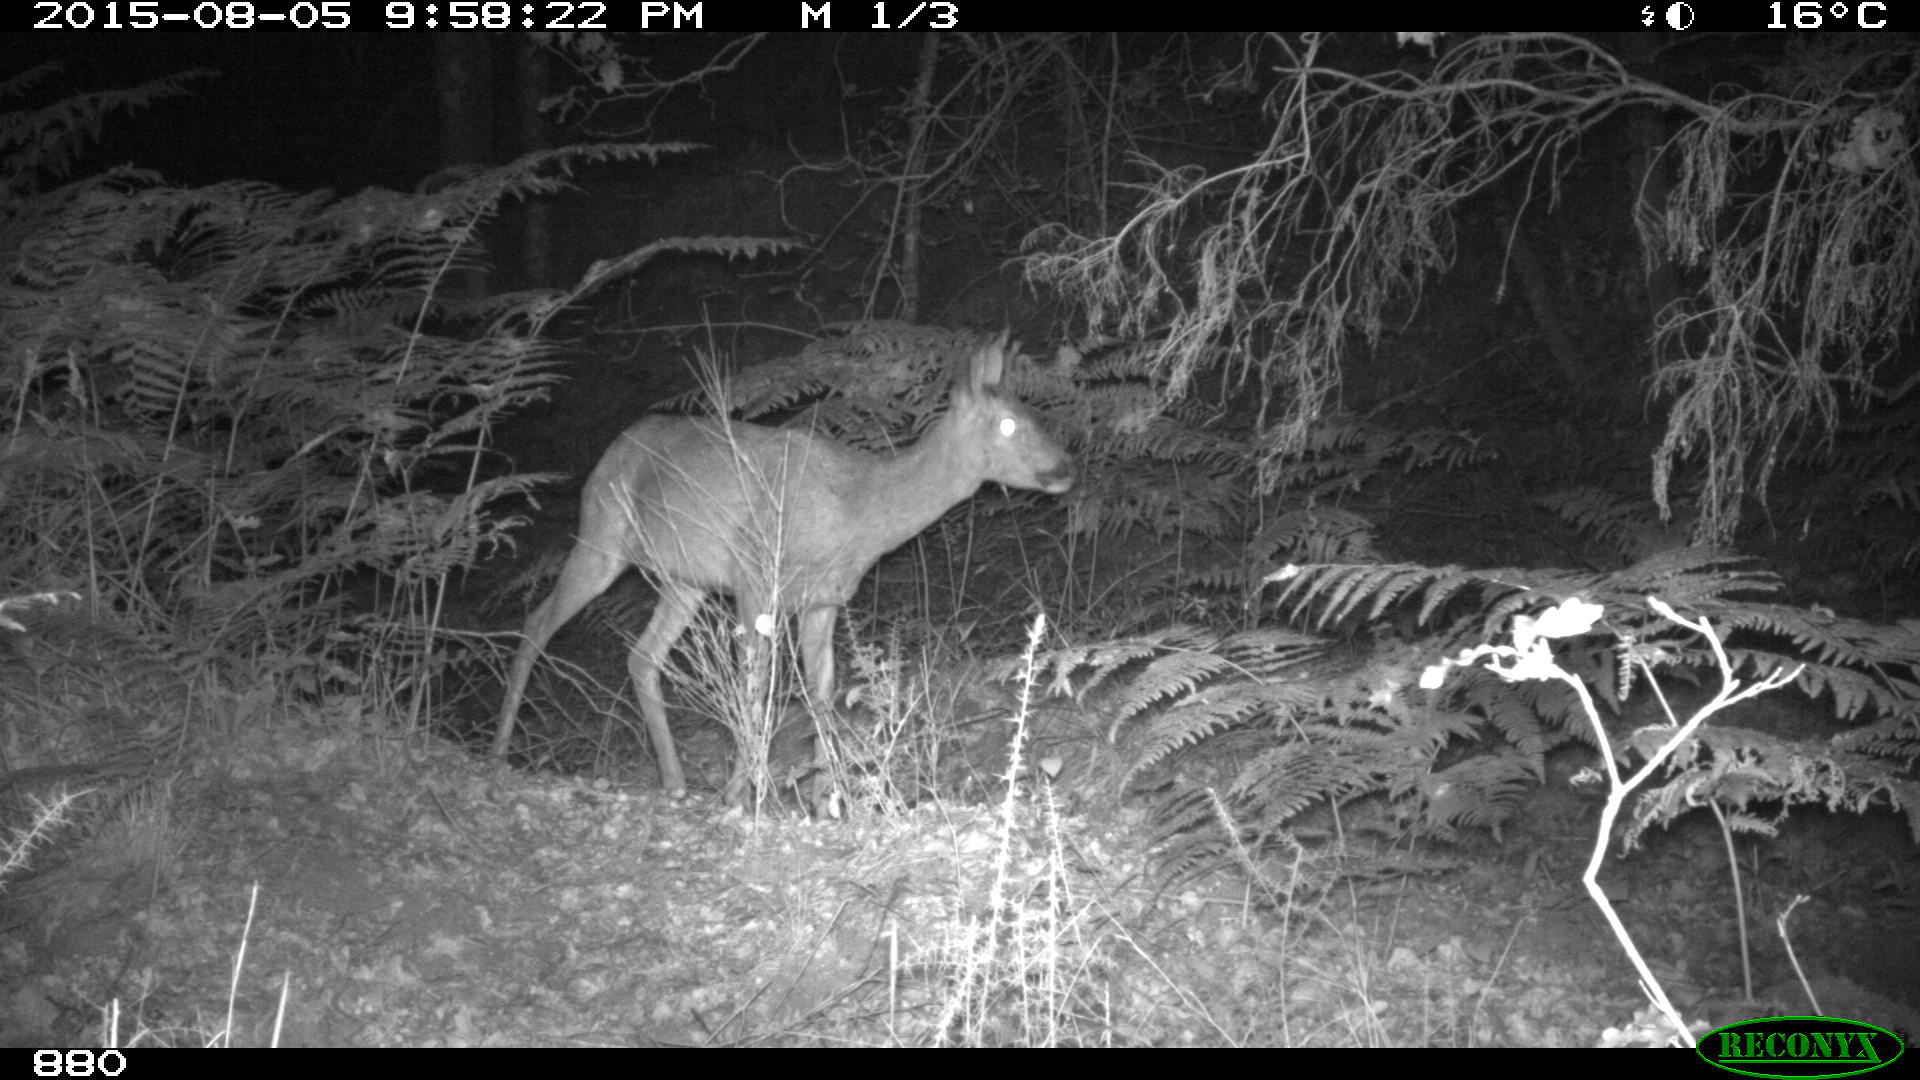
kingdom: Animalia
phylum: Chordata
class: Mammalia
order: Artiodactyla
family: Cervidae
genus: Capreolus
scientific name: Capreolus capreolus
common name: Western roe deer
